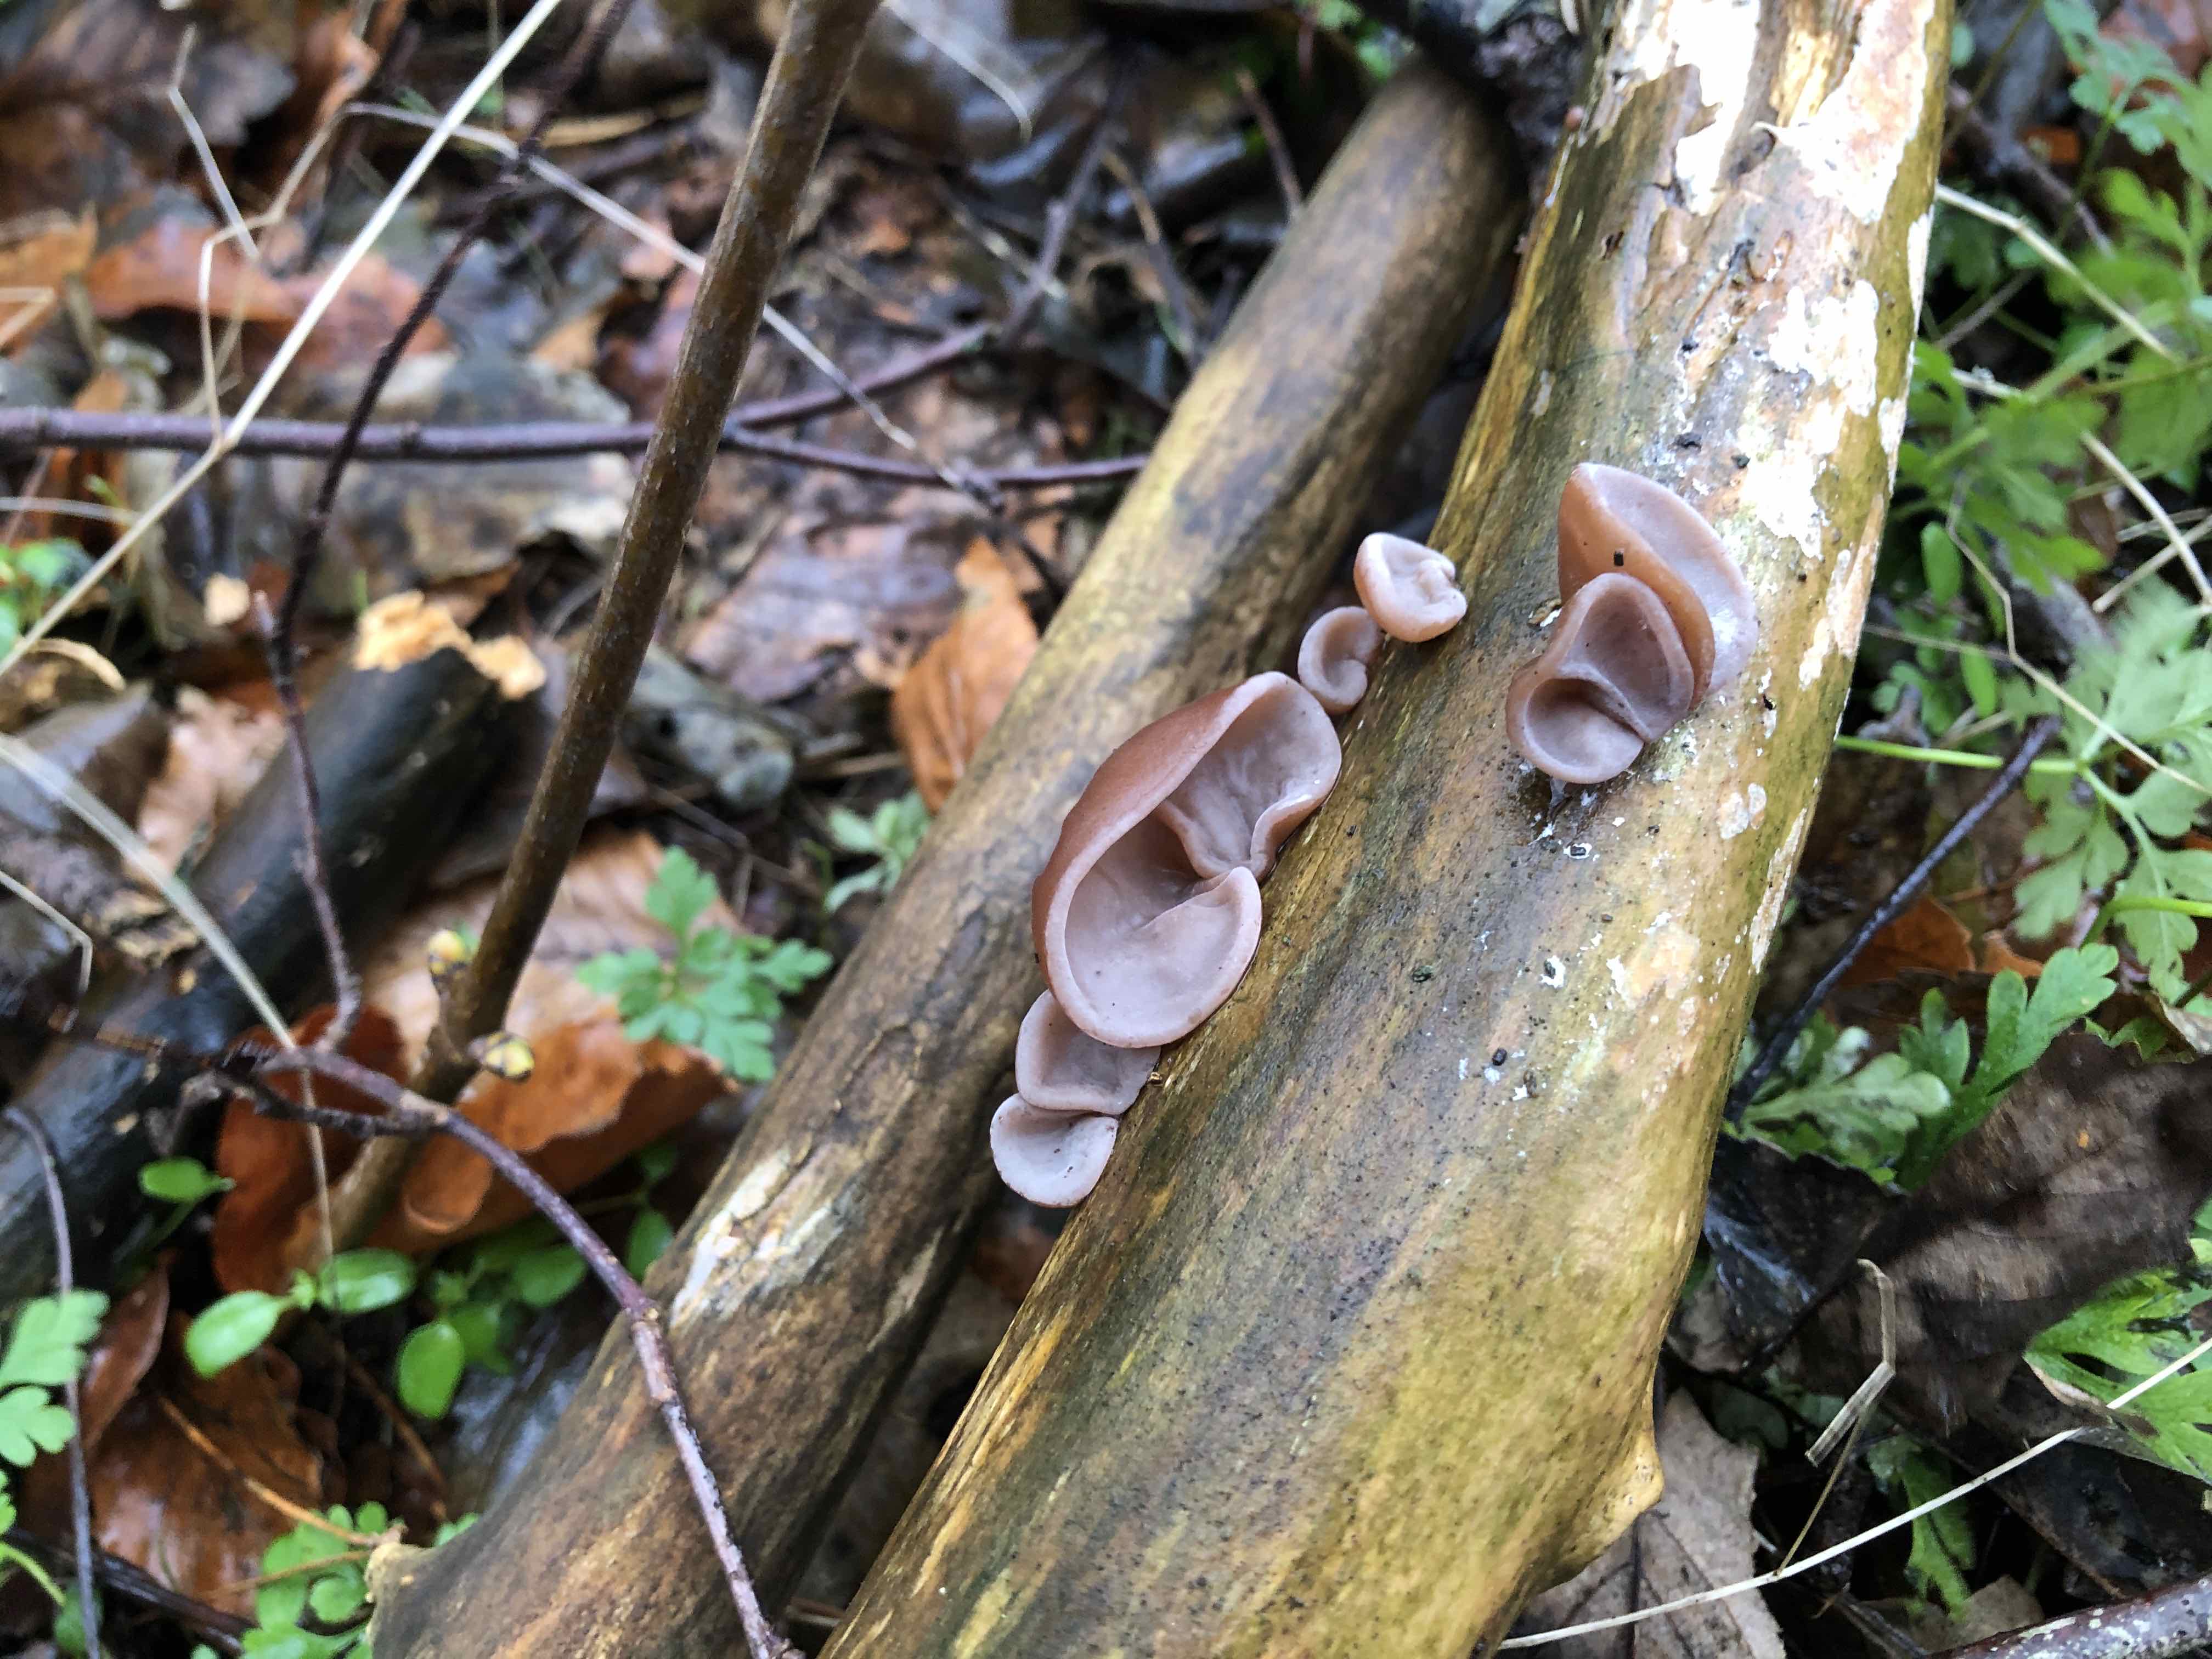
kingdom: Fungi
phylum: Basidiomycota
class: Agaricomycetes
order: Auriculariales
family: Auriculariaceae
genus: Auricularia
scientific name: Auricularia auricula-judae
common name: almindelig judasøre
